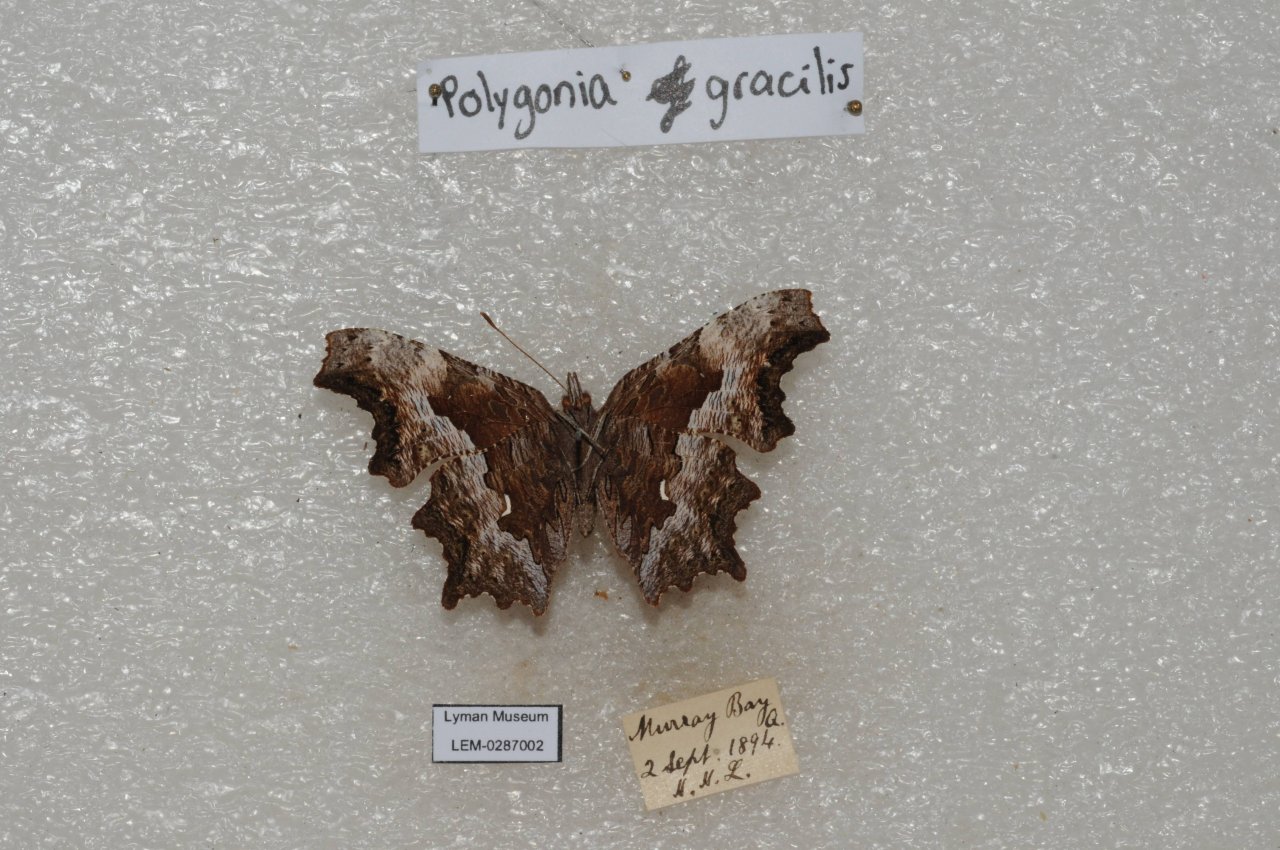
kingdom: Animalia
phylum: Arthropoda
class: Insecta
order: Lepidoptera
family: Nymphalidae
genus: Polygonia
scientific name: Polygonia gracilis
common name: Hoary Comma
